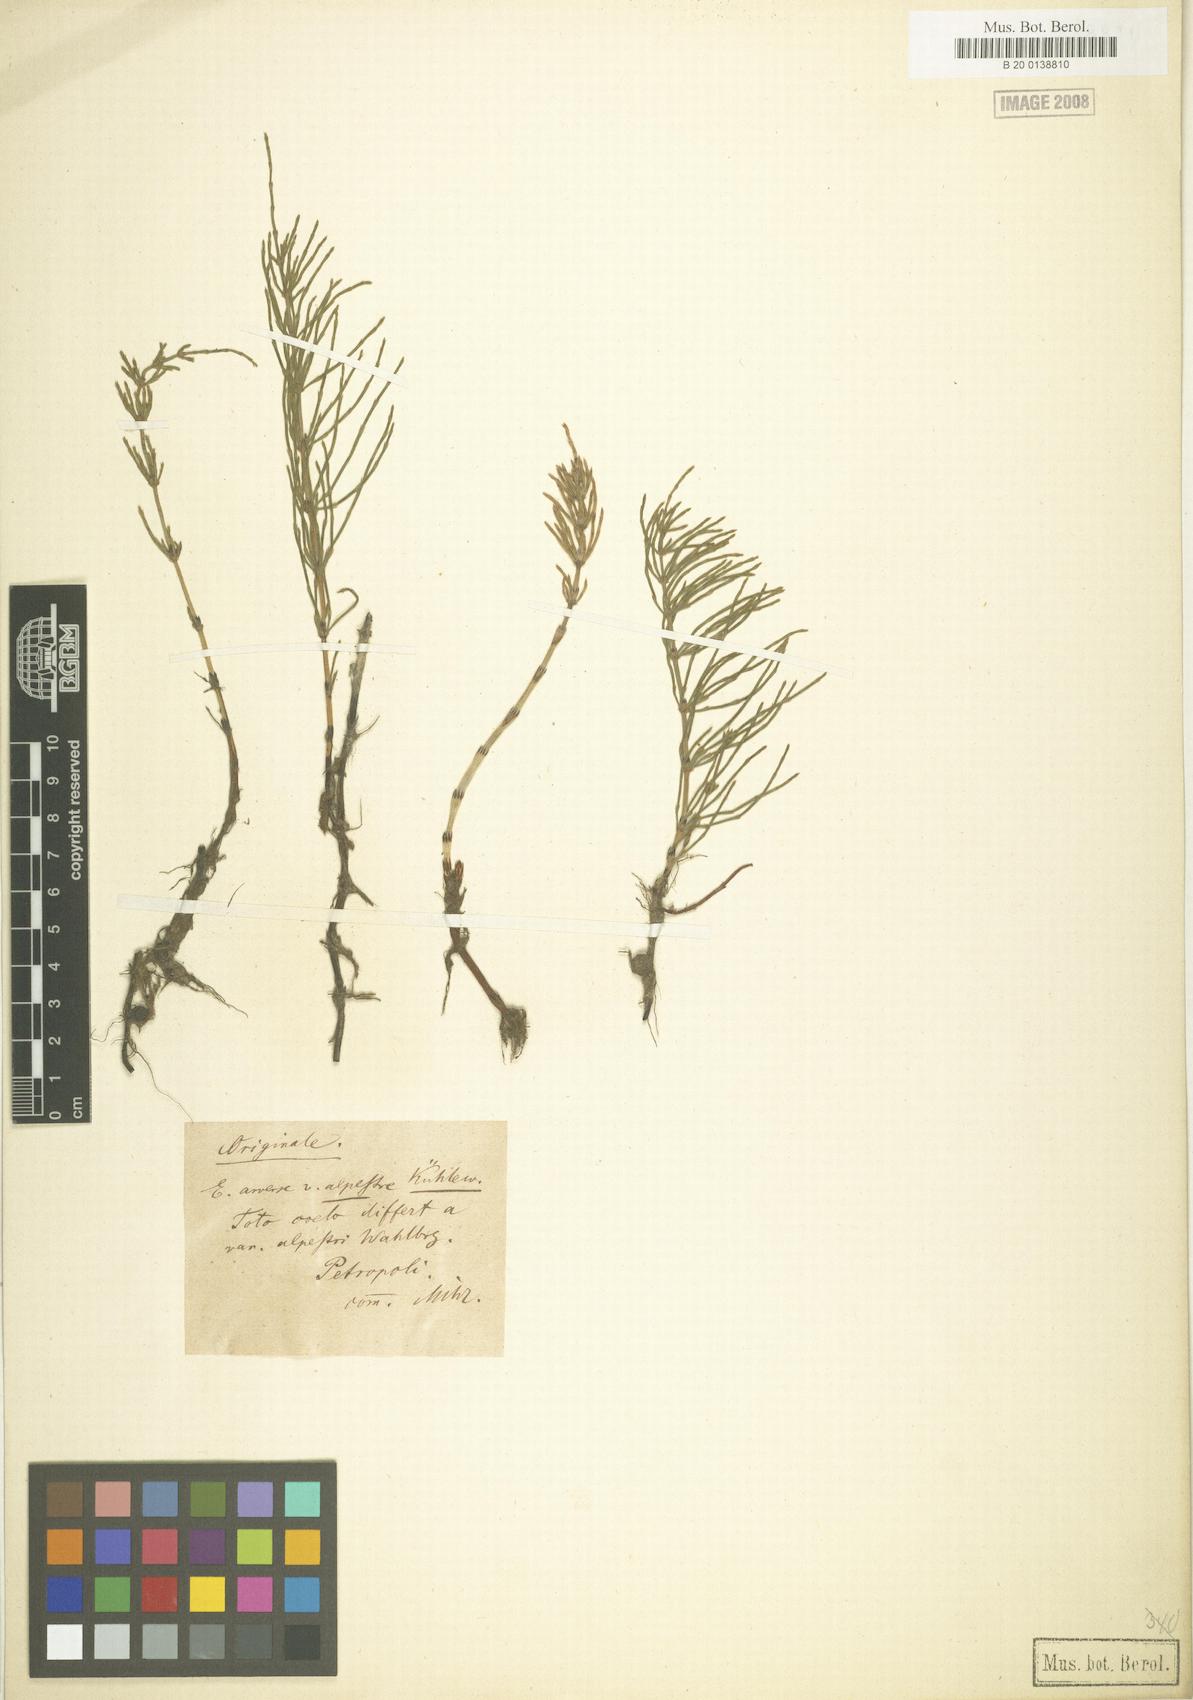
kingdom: Plantae
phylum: Tracheophyta
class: Polypodiopsida
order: Equisetales
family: Equisetaceae
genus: Equisetum
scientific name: Equisetum arvense
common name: Field horsetail
